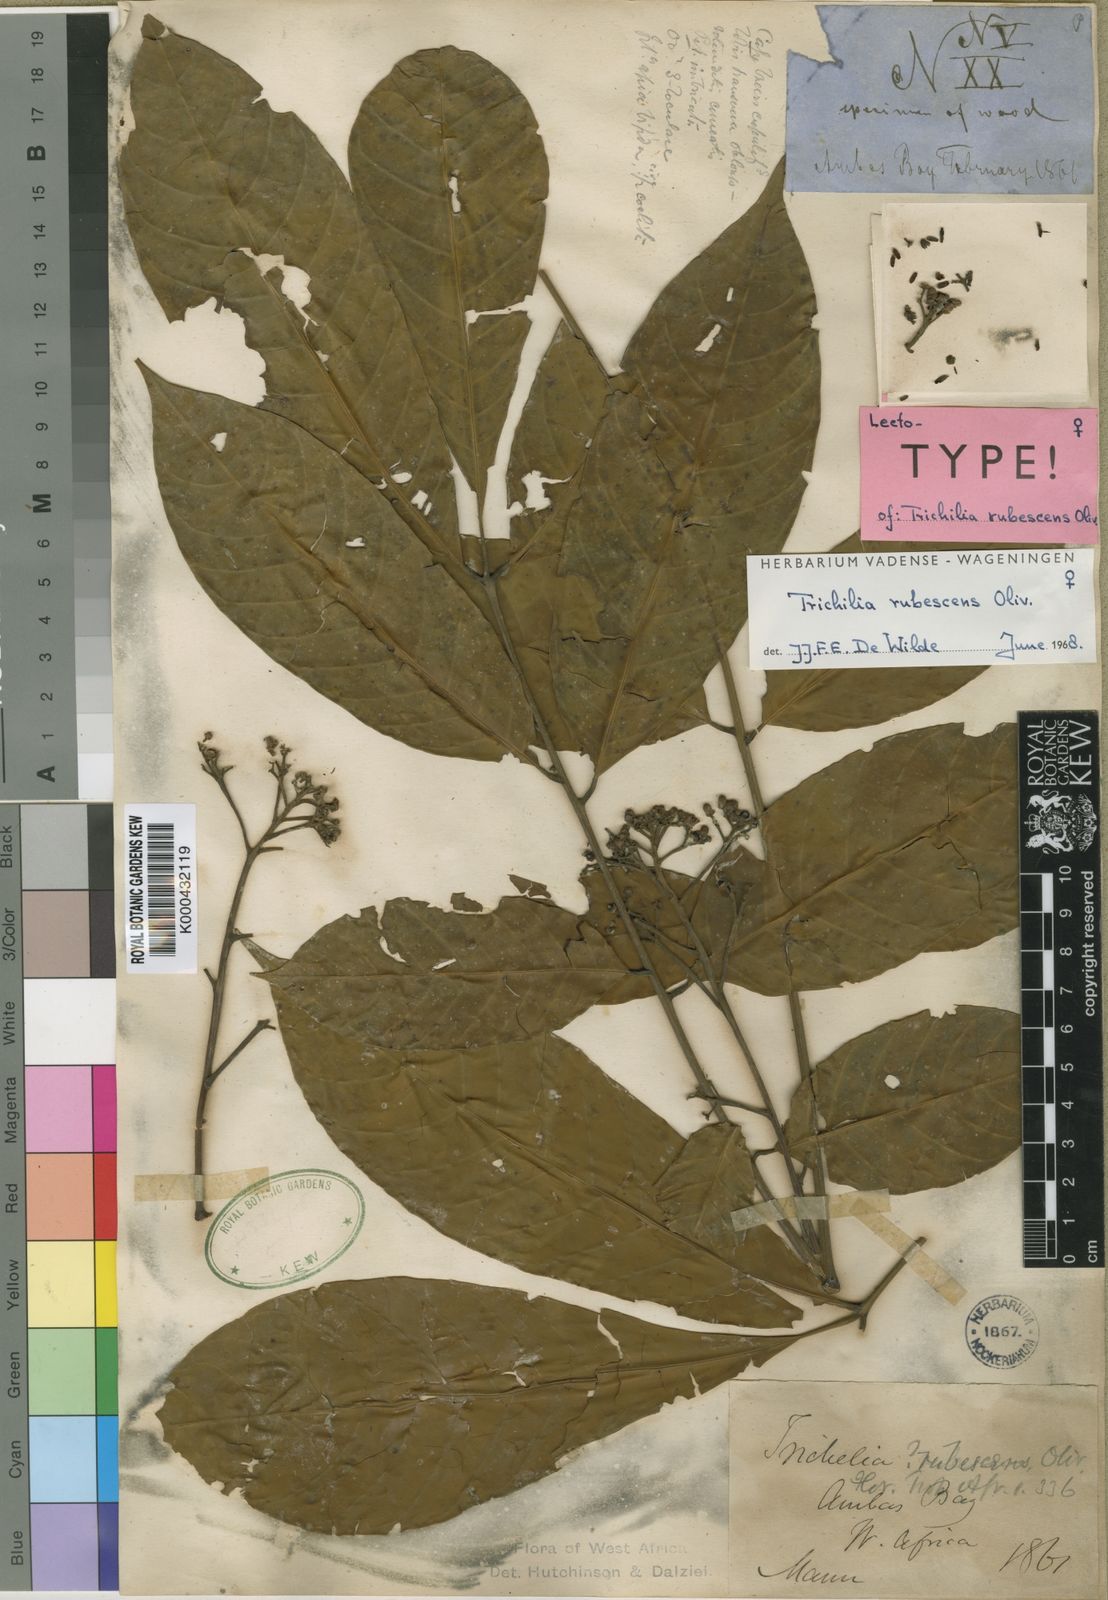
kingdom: Plantae
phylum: Tracheophyta
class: Magnoliopsida
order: Sapindales
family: Meliaceae
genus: Trichilia
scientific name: Trichilia rubescens
